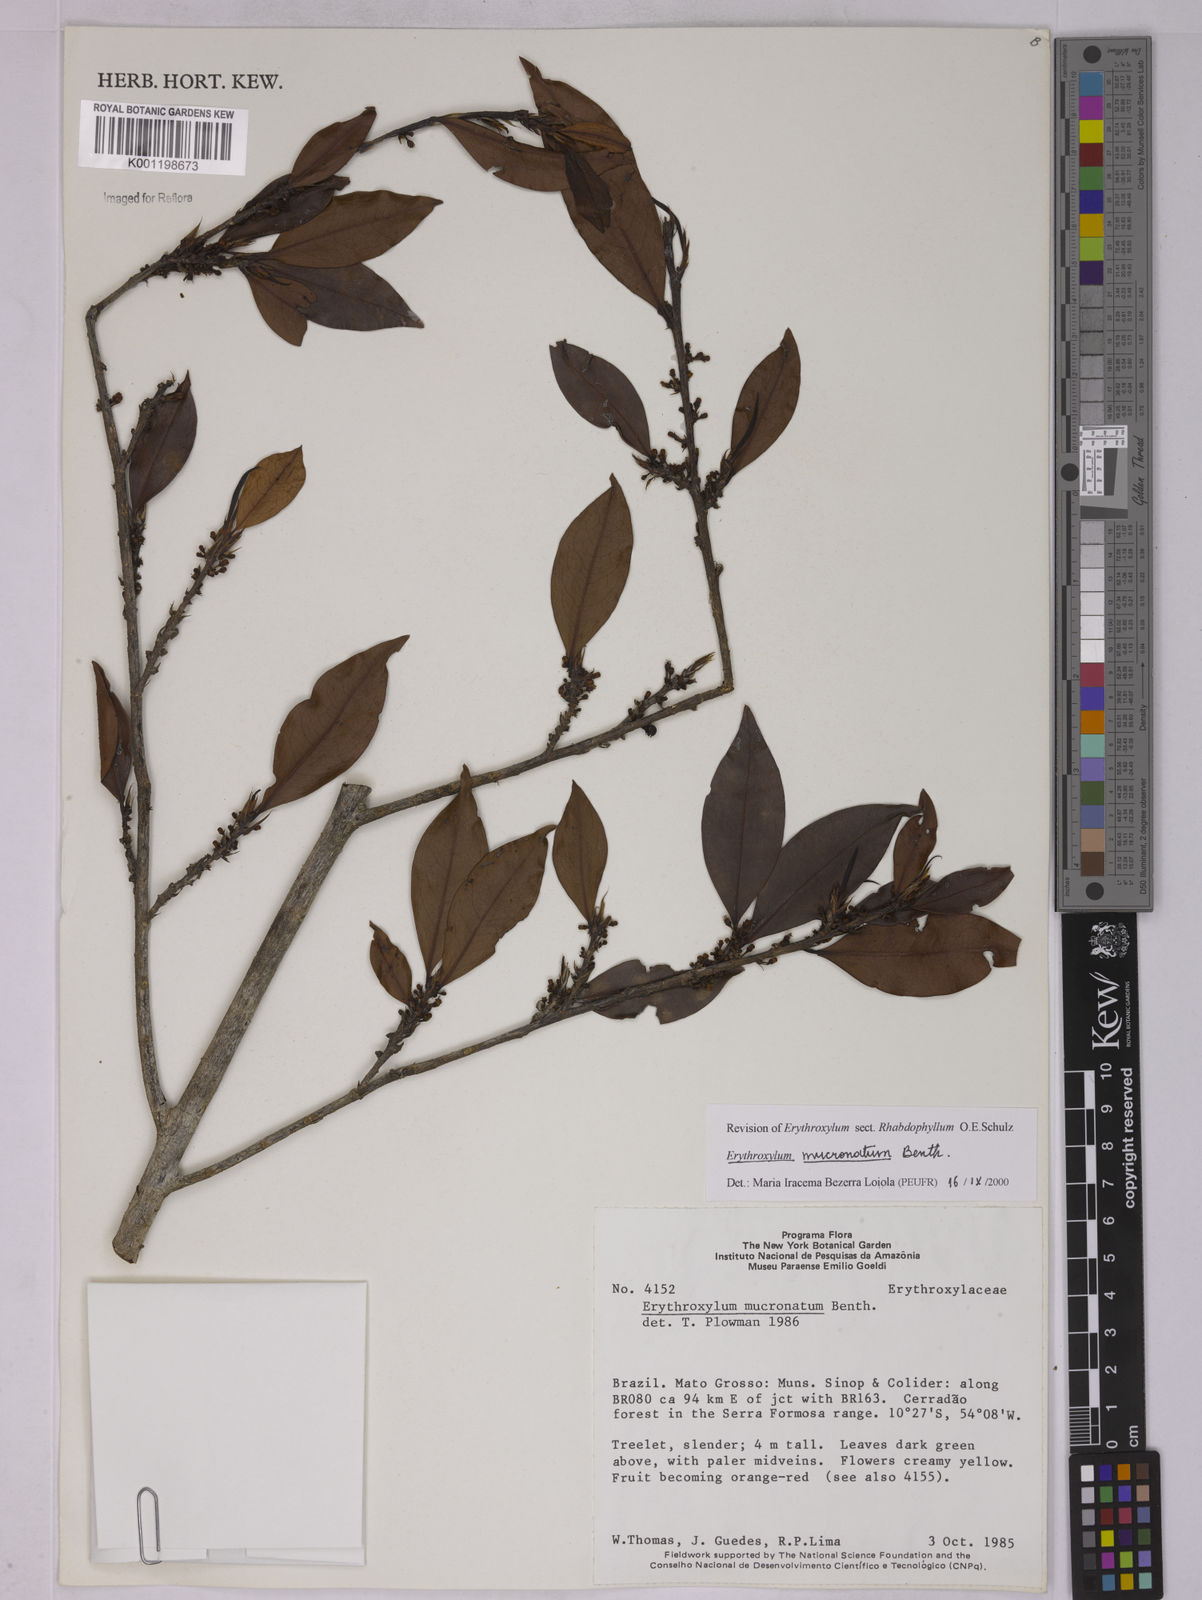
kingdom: Plantae
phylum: Tracheophyta
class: Magnoliopsida
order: Malpighiales
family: Erythroxylaceae
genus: Erythroxylum
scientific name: Erythroxylum mucronatum
